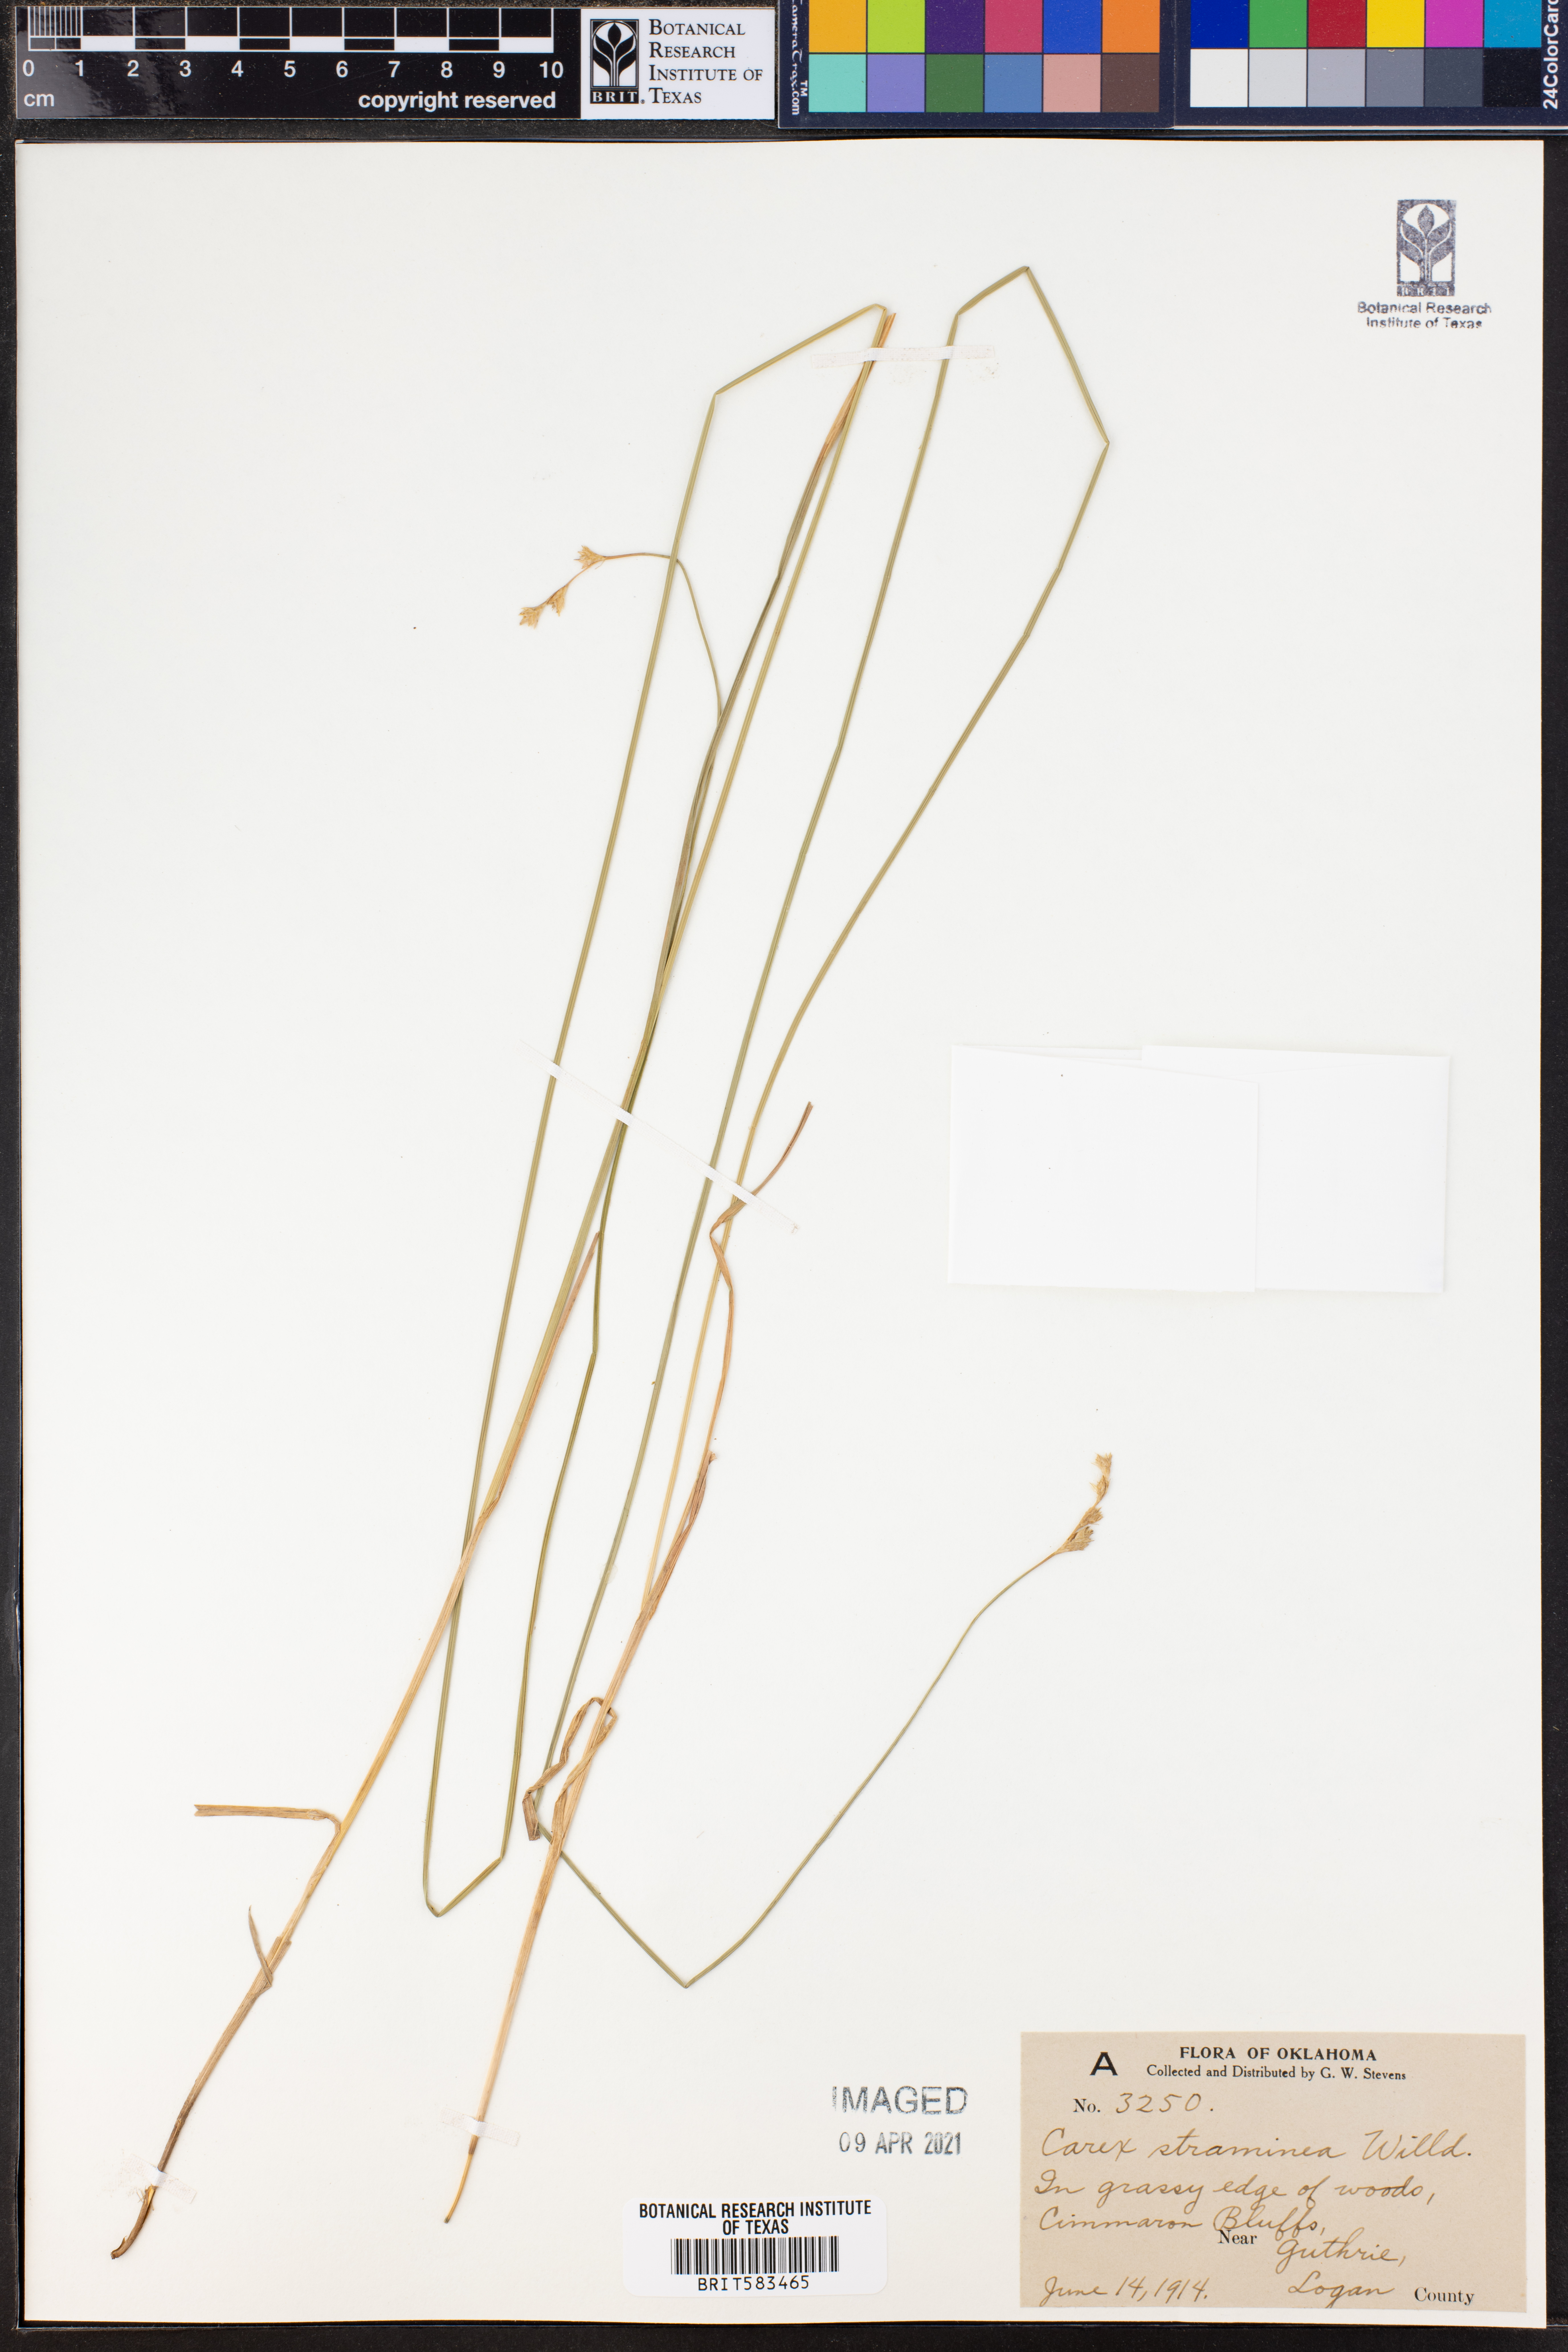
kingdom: Plantae
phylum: Tracheophyta
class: Liliopsida
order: Poales
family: Cyperaceae
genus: Carex
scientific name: Carex straminea
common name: Eastern straw sedge
